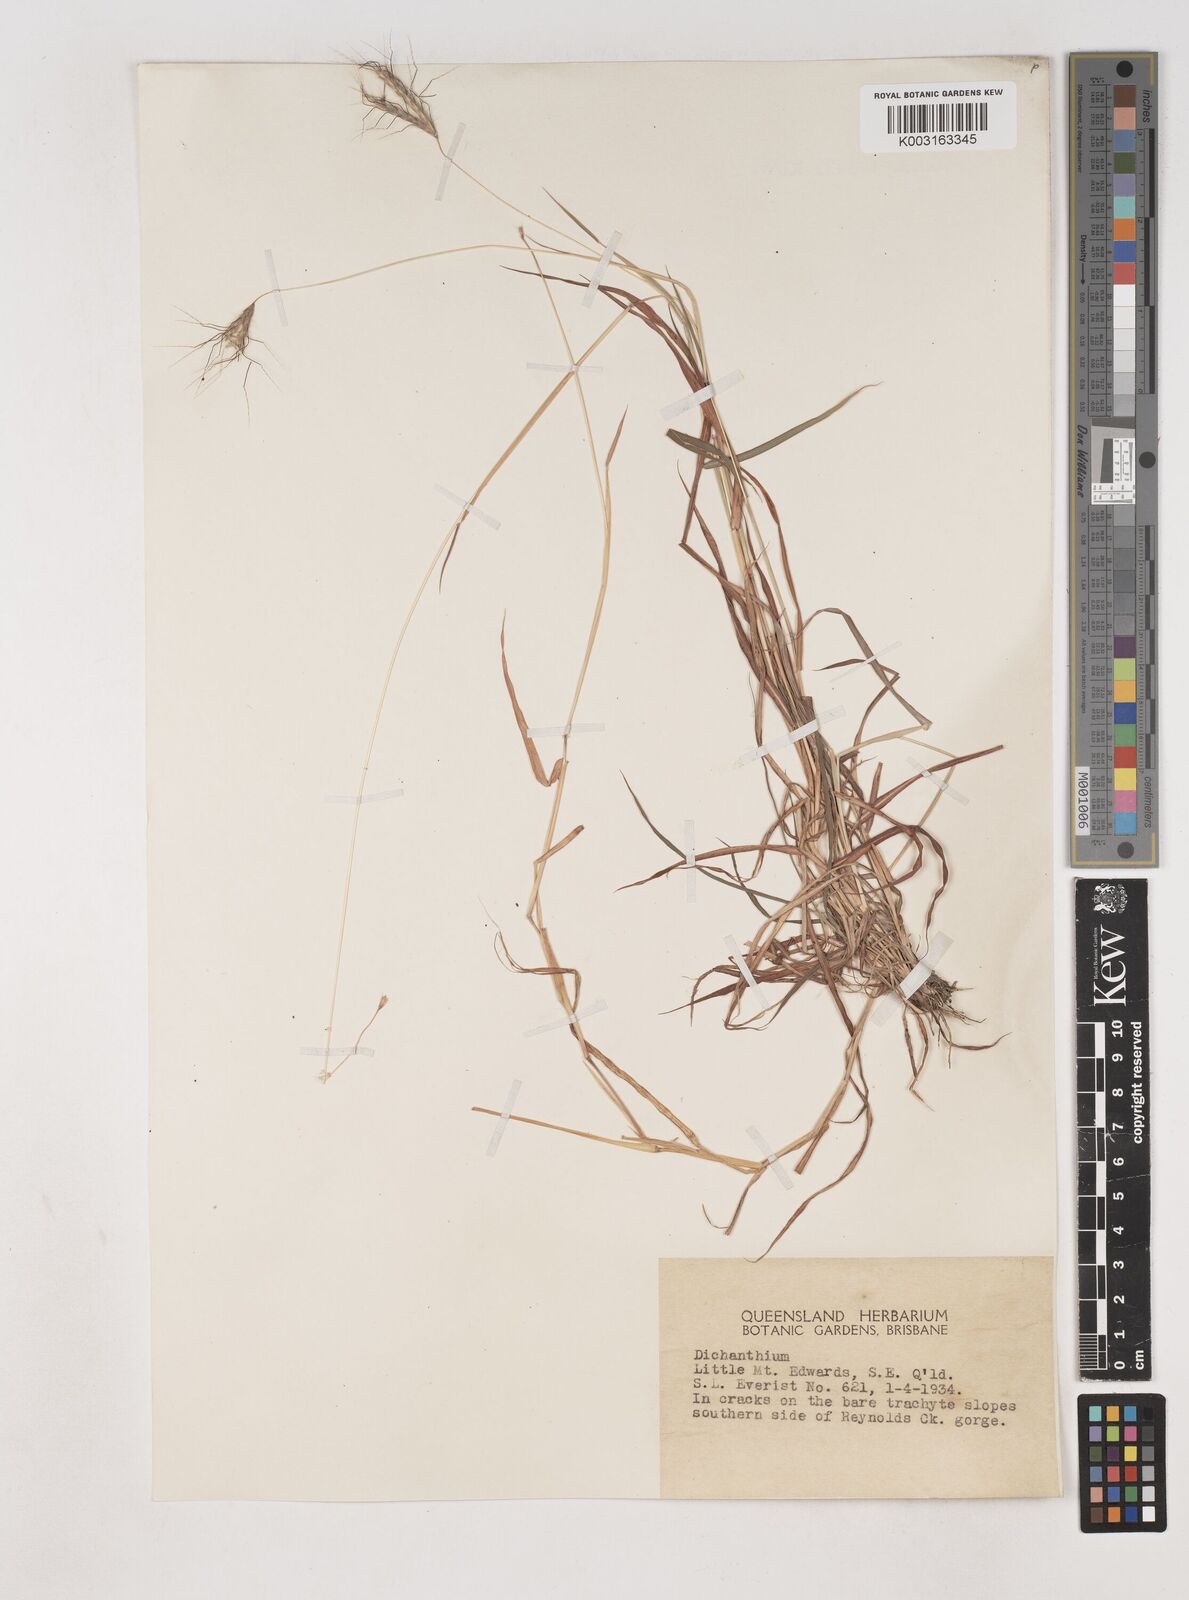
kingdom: Plantae
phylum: Tracheophyta
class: Liliopsida
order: Poales
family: Poaceae
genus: Dichanthium
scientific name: Dichanthium sericeum
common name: Silky bluestem
